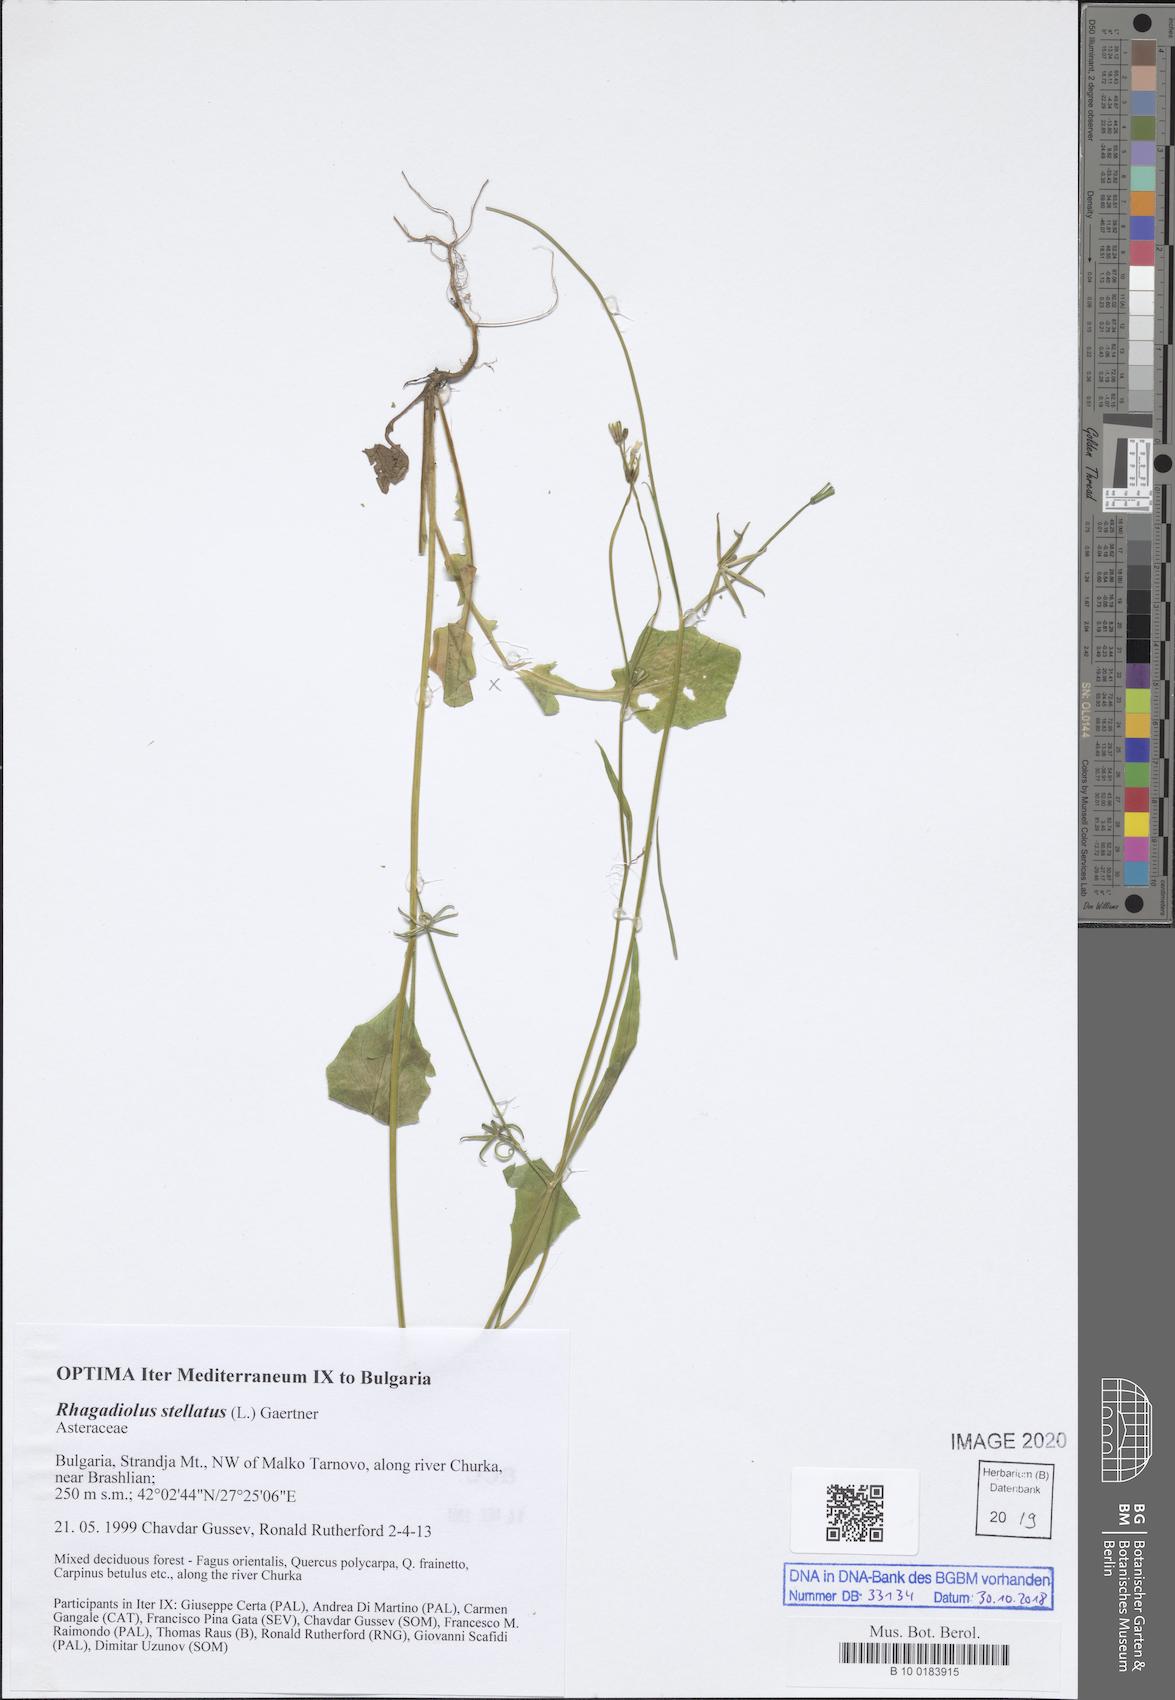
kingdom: Plantae
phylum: Tracheophyta
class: Magnoliopsida
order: Asterales
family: Asteraceae
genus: Rhagadiolus
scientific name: Rhagadiolus stellatus
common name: Star hawkbit
